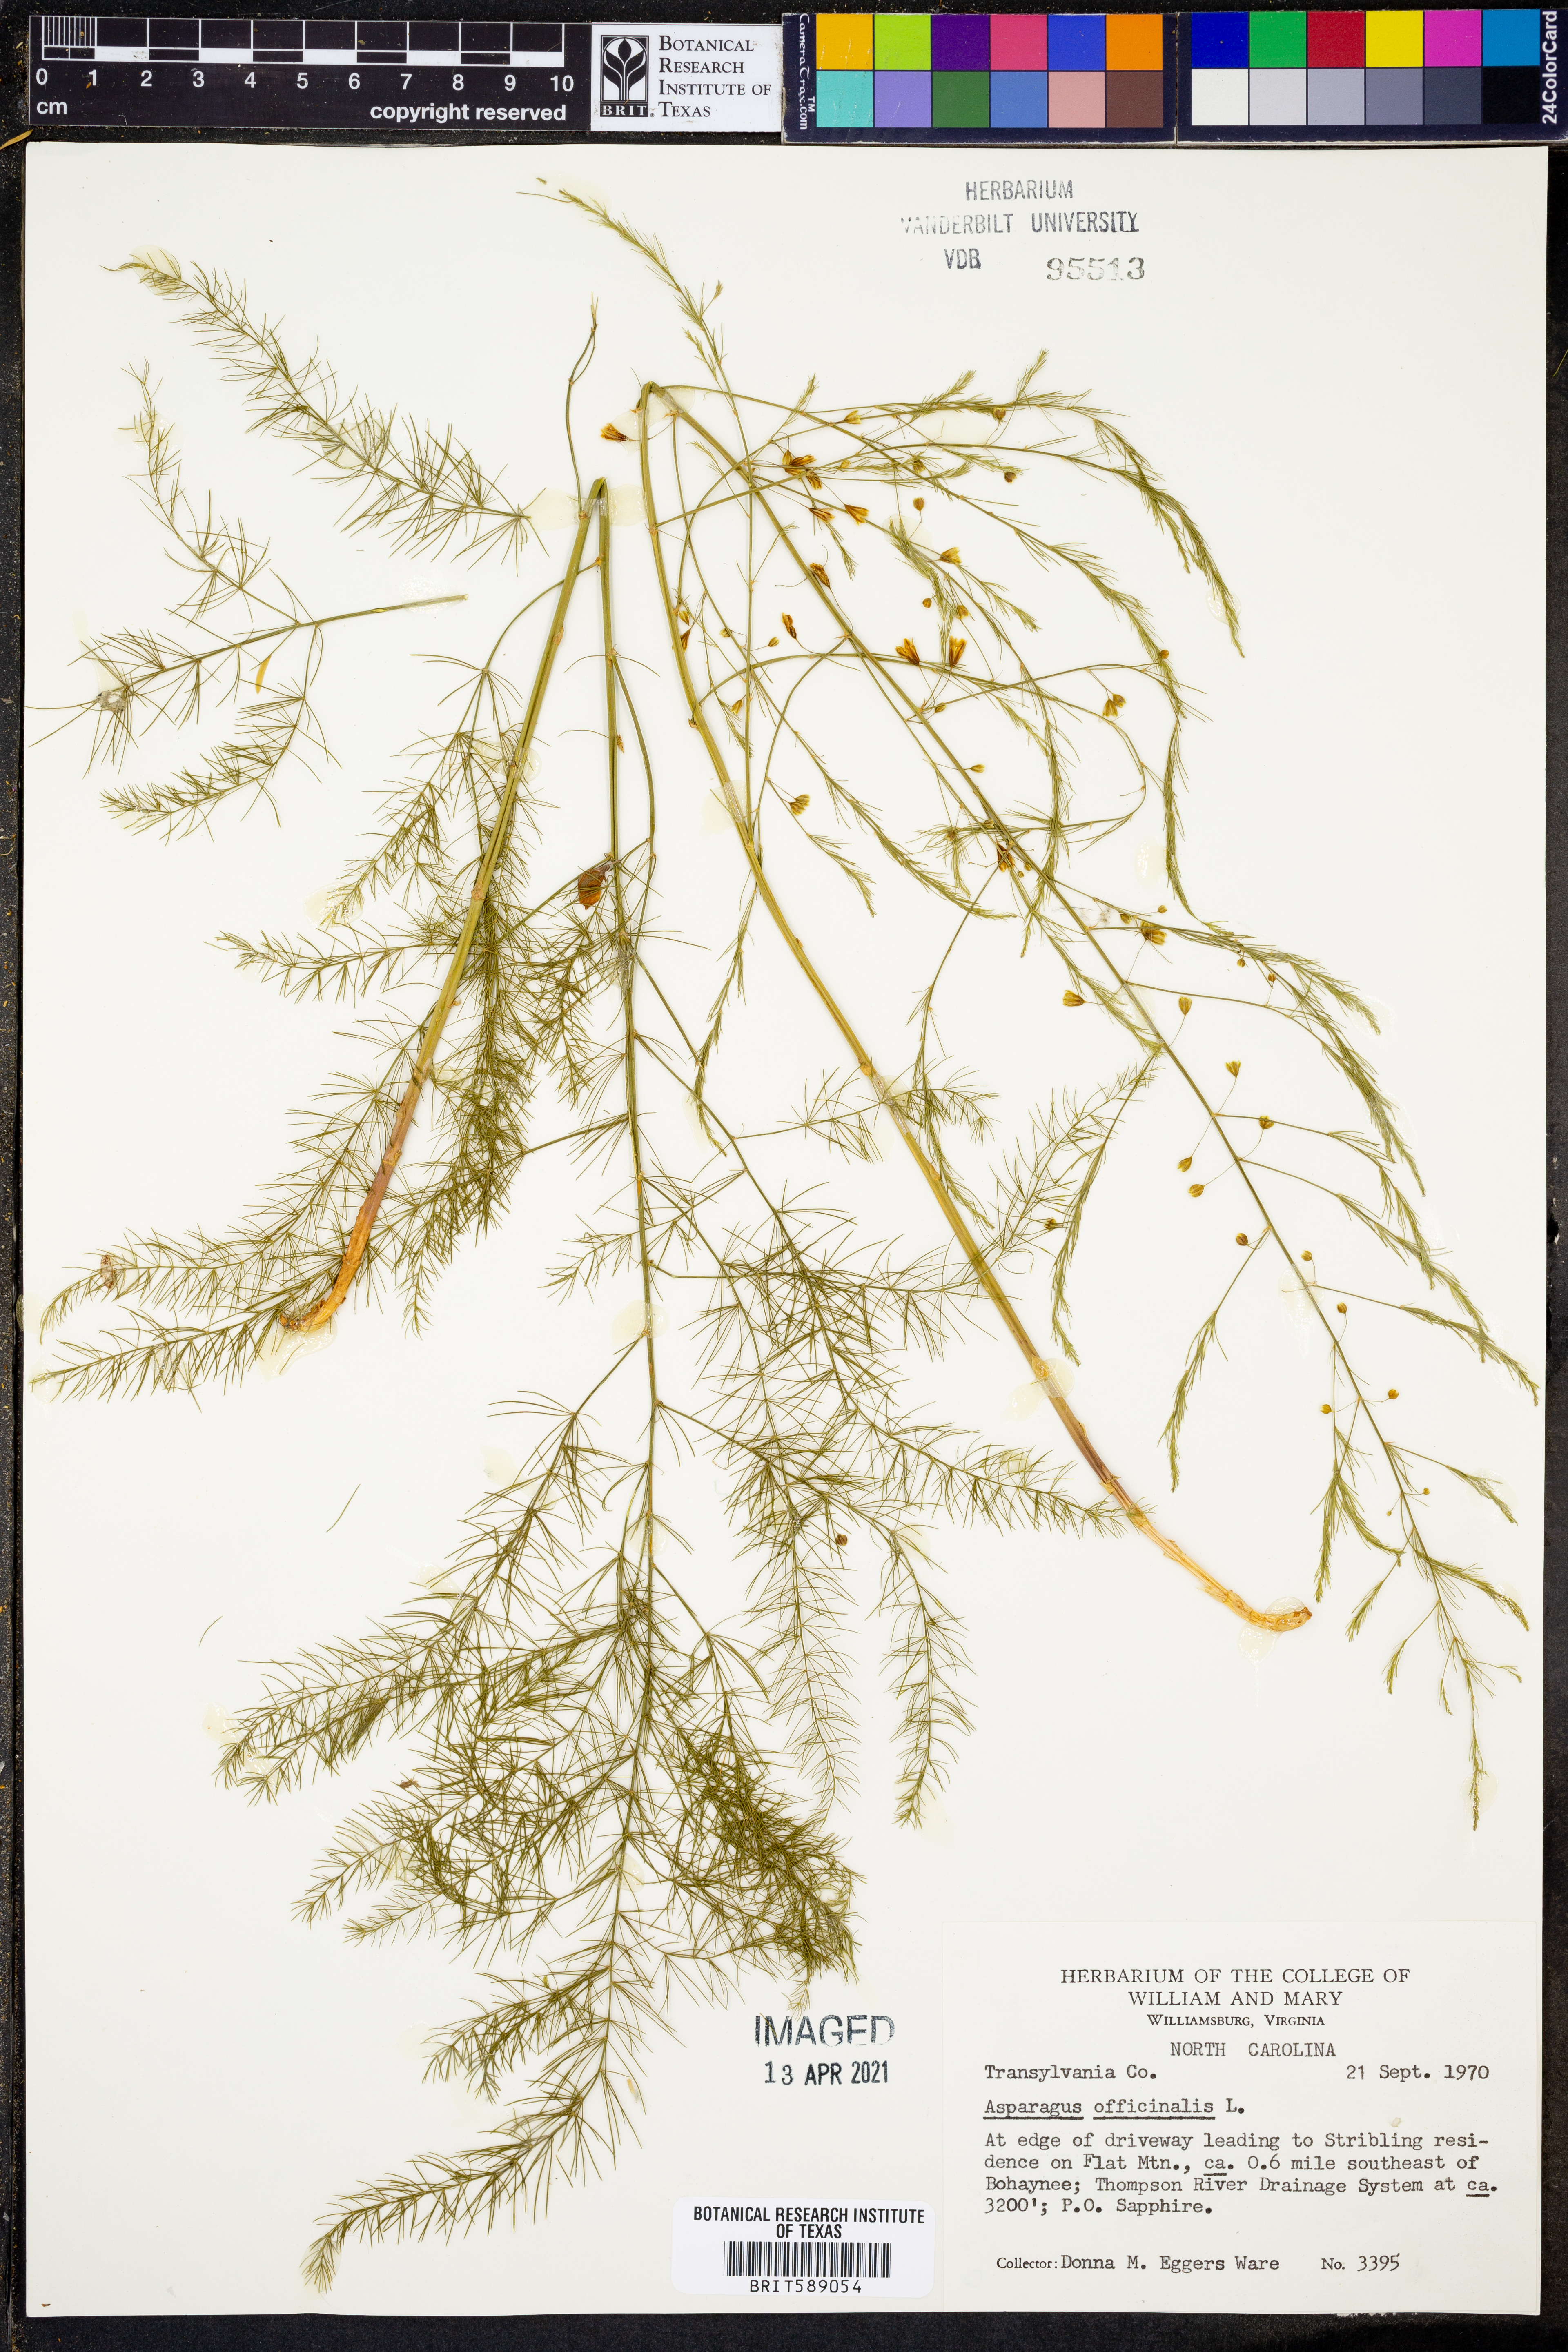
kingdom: Plantae
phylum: Tracheophyta
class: Liliopsida
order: Asparagales
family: Asparagaceae
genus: Asparagus
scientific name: Asparagus officinalis
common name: Garden asparagus
